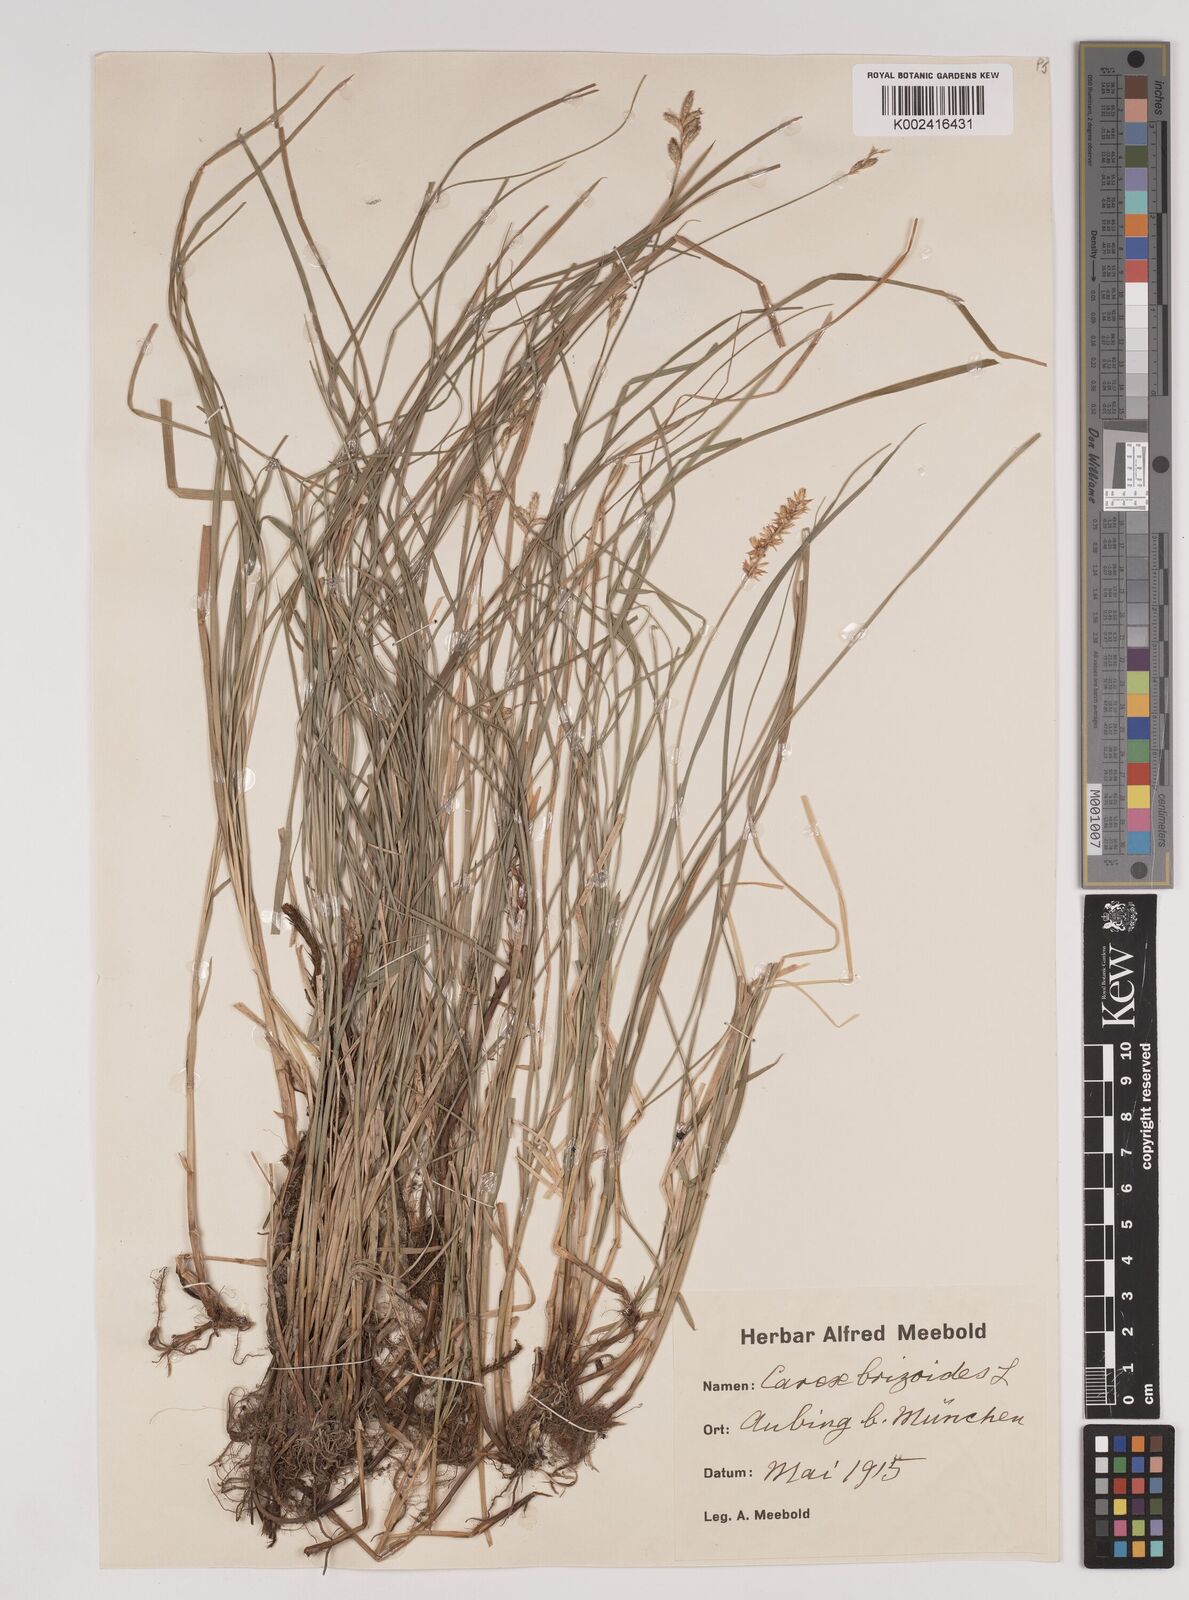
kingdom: Plantae
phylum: Tracheophyta
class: Liliopsida
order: Poales
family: Cyperaceae
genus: Carex
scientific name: Carex brizoides
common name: Quaking-grass sedge
